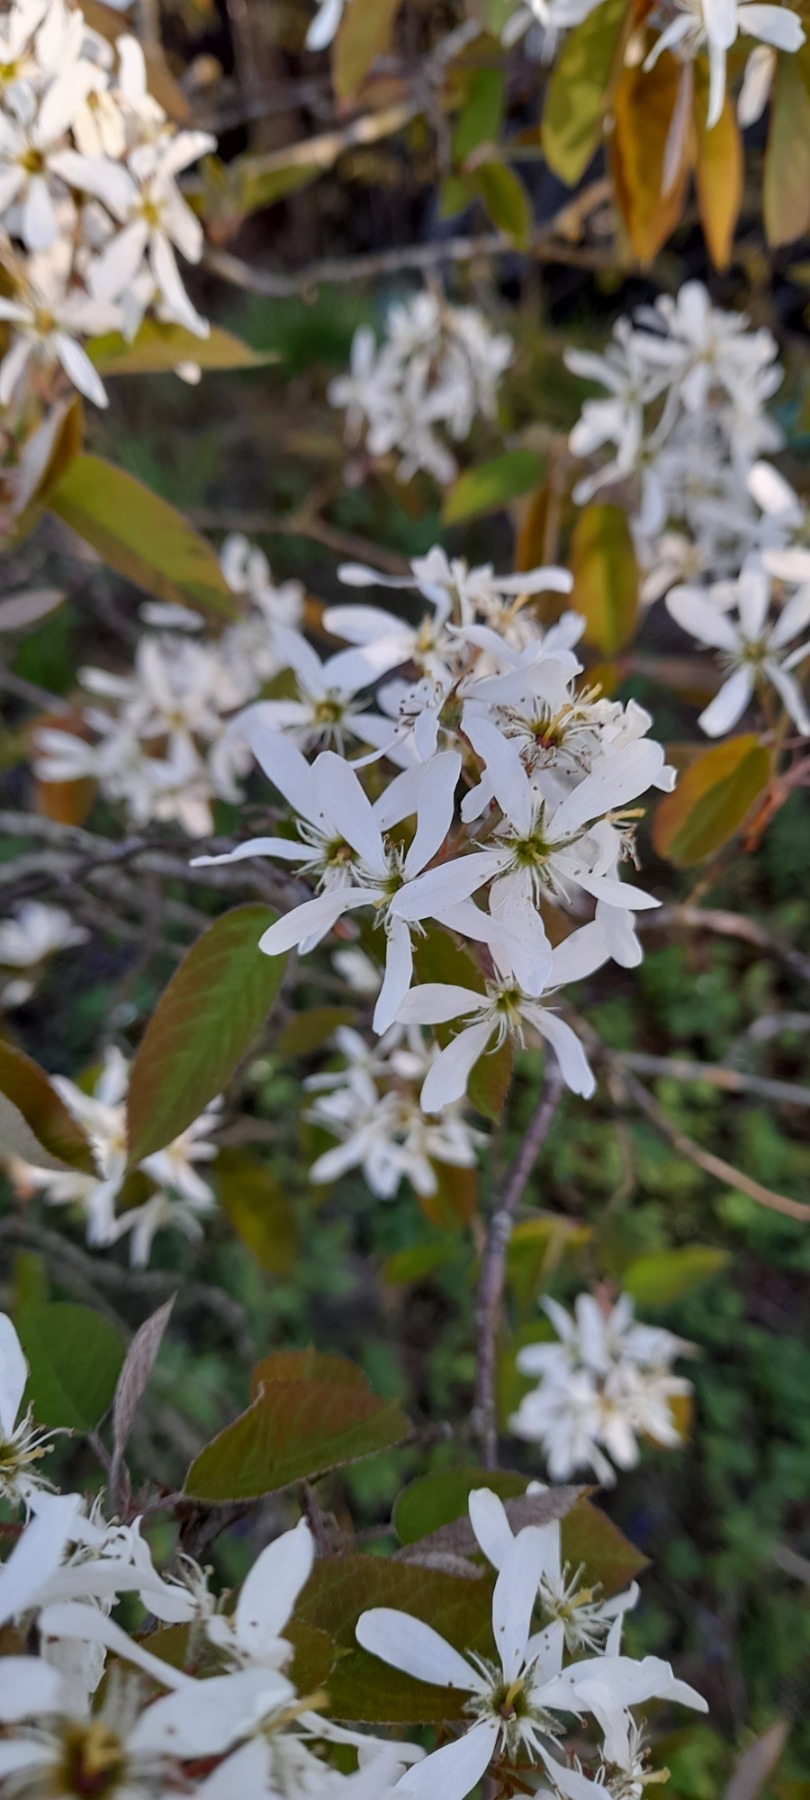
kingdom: Plantae
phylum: Tracheophyta
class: Magnoliopsida
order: Rosales
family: Rosaceae
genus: Amelanchier
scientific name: Amelanchier lamarckii
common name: Bærmispel
